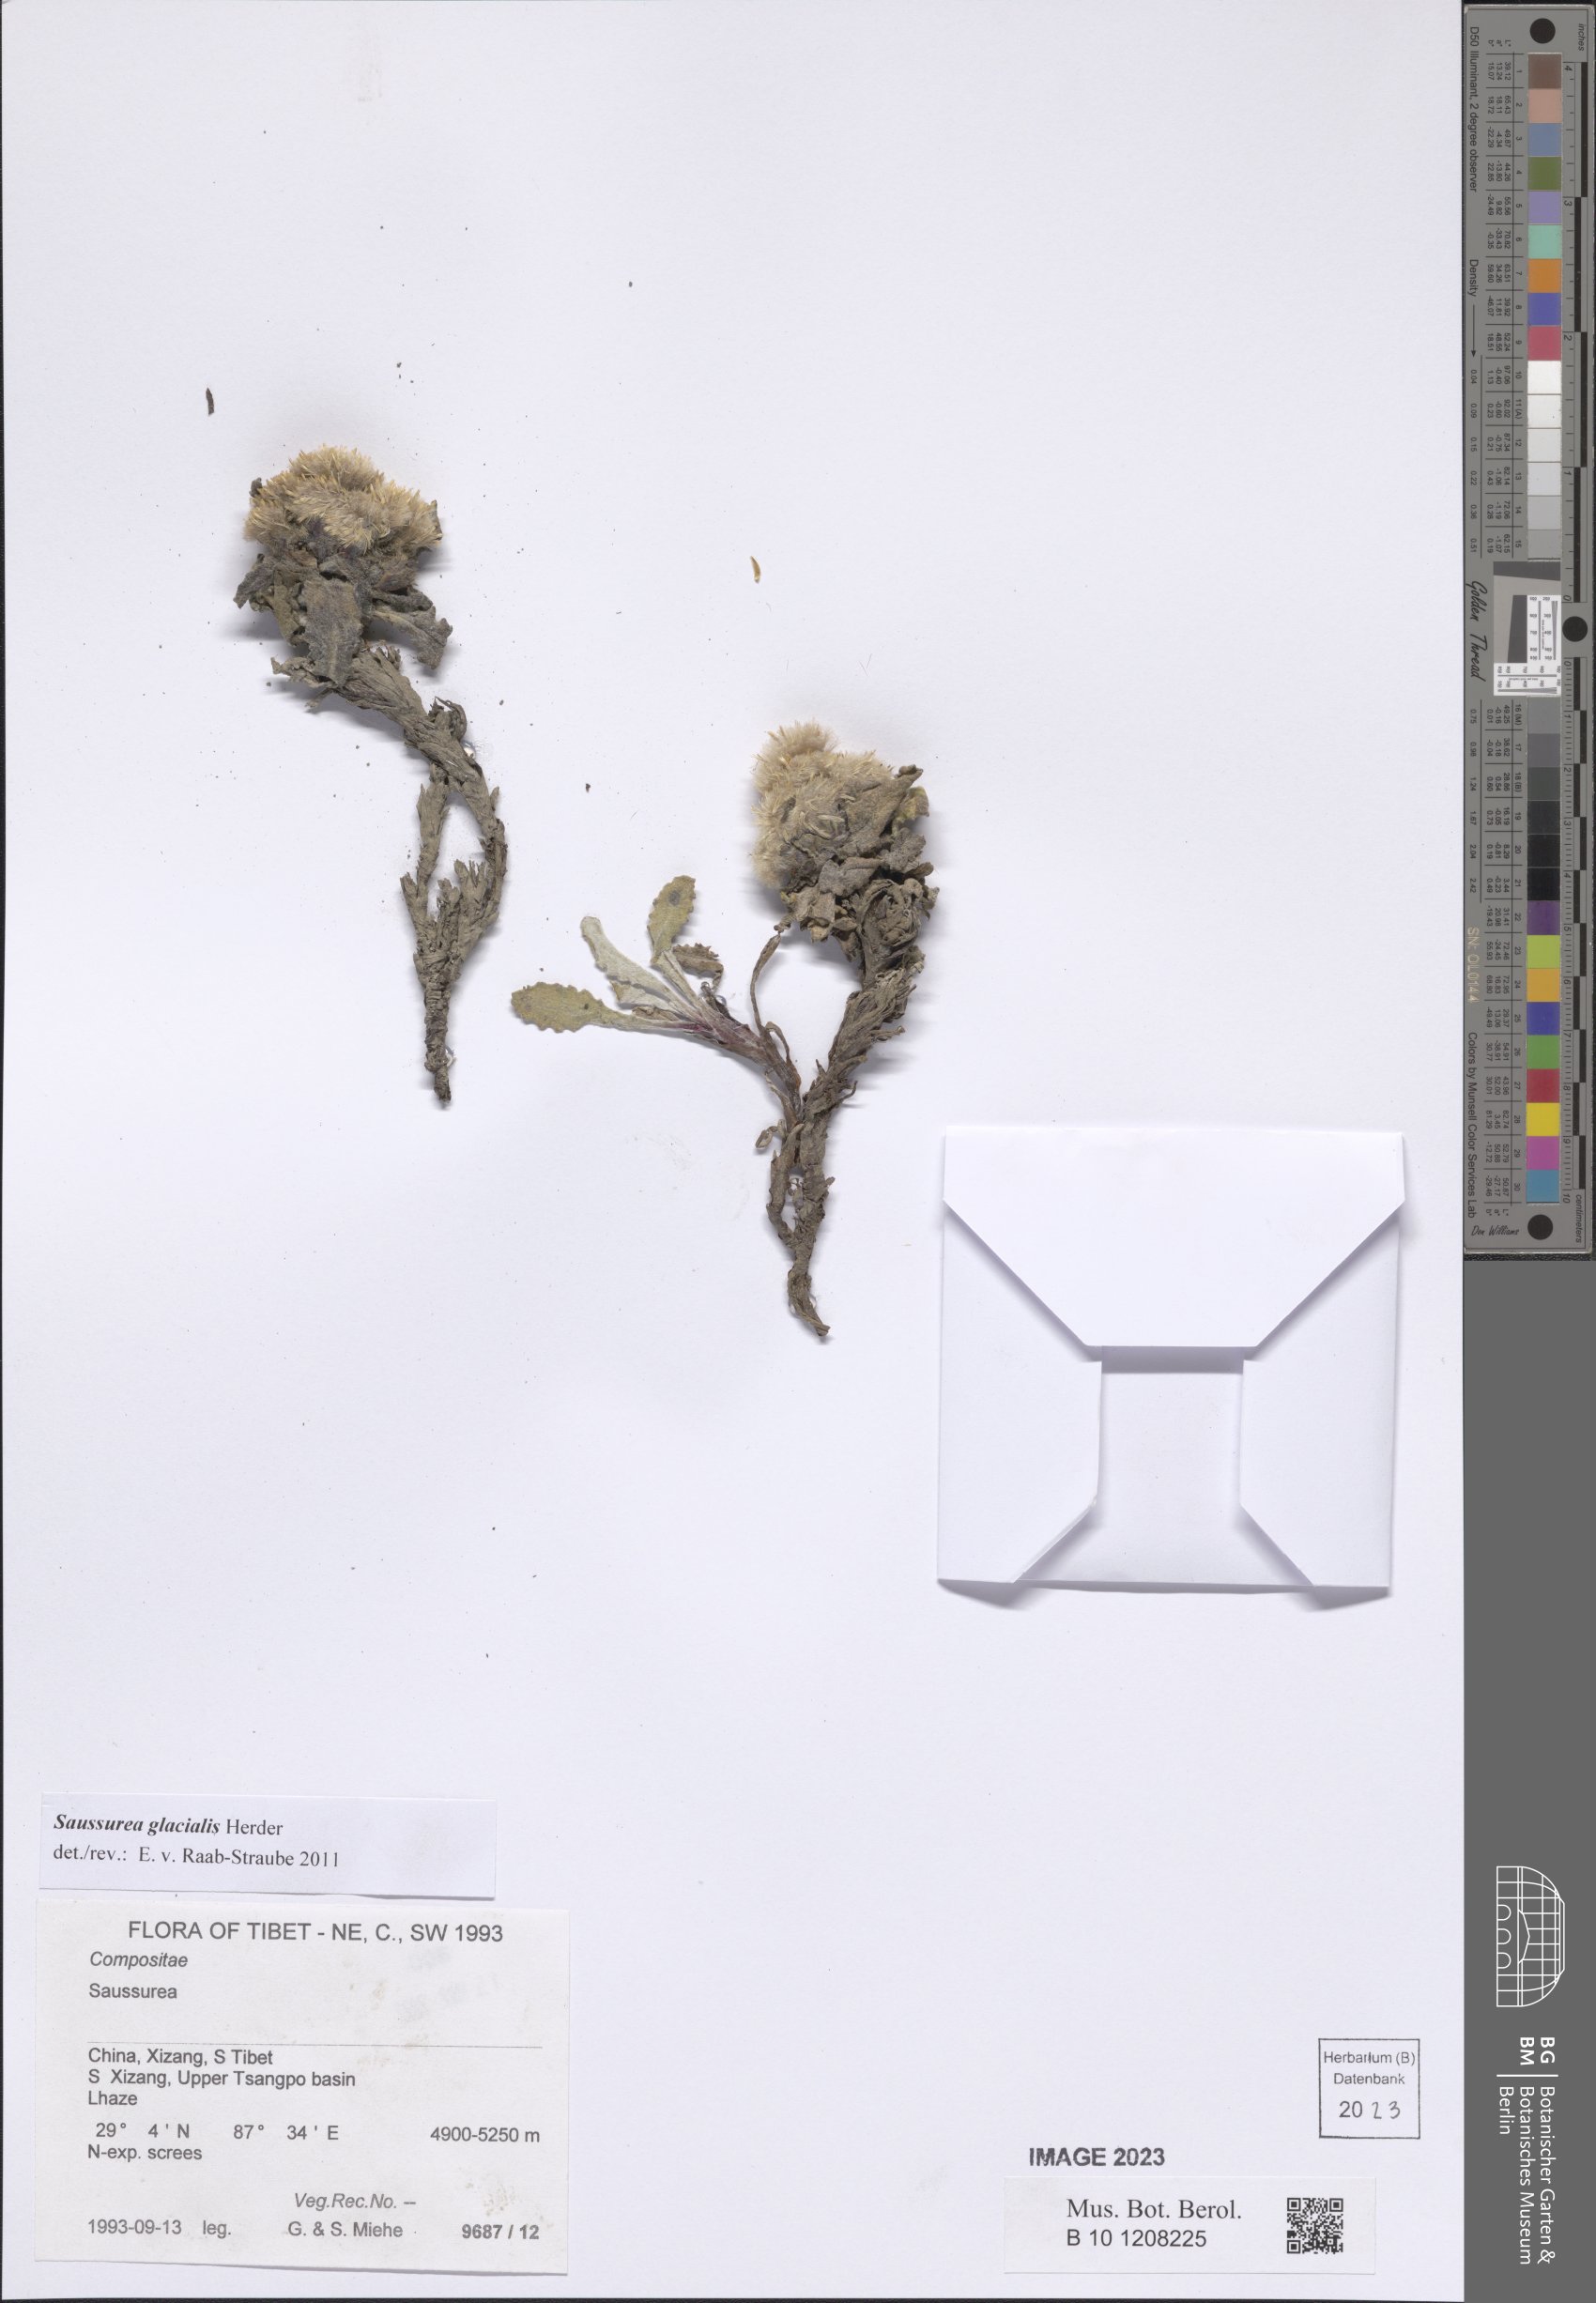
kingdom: Plantae
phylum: Tracheophyta
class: Magnoliopsida
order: Asterales
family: Asteraceae
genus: Saussurea
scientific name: Saussurea glacialis
